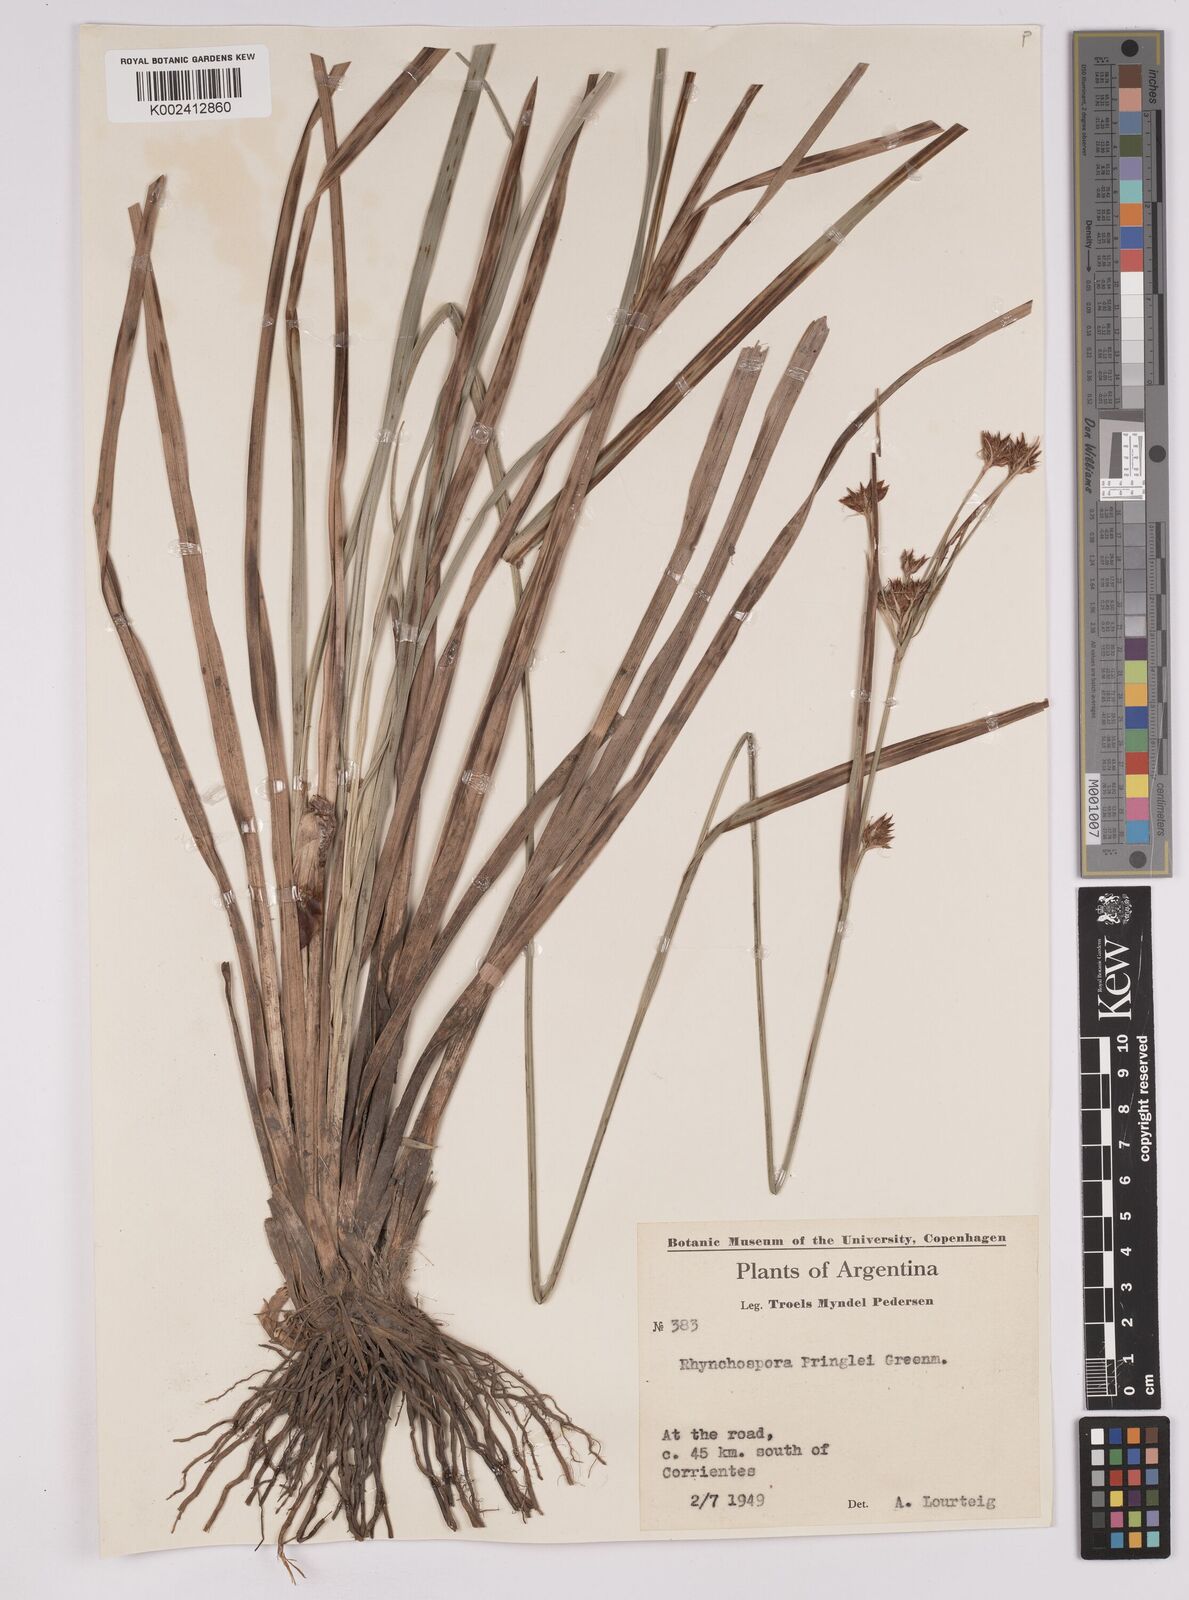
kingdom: Plantae
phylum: Tracheophyta
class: Liliopsida
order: Poales
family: Cyperaceae
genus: Rhynchospora
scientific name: Rhynchospora scutellata
